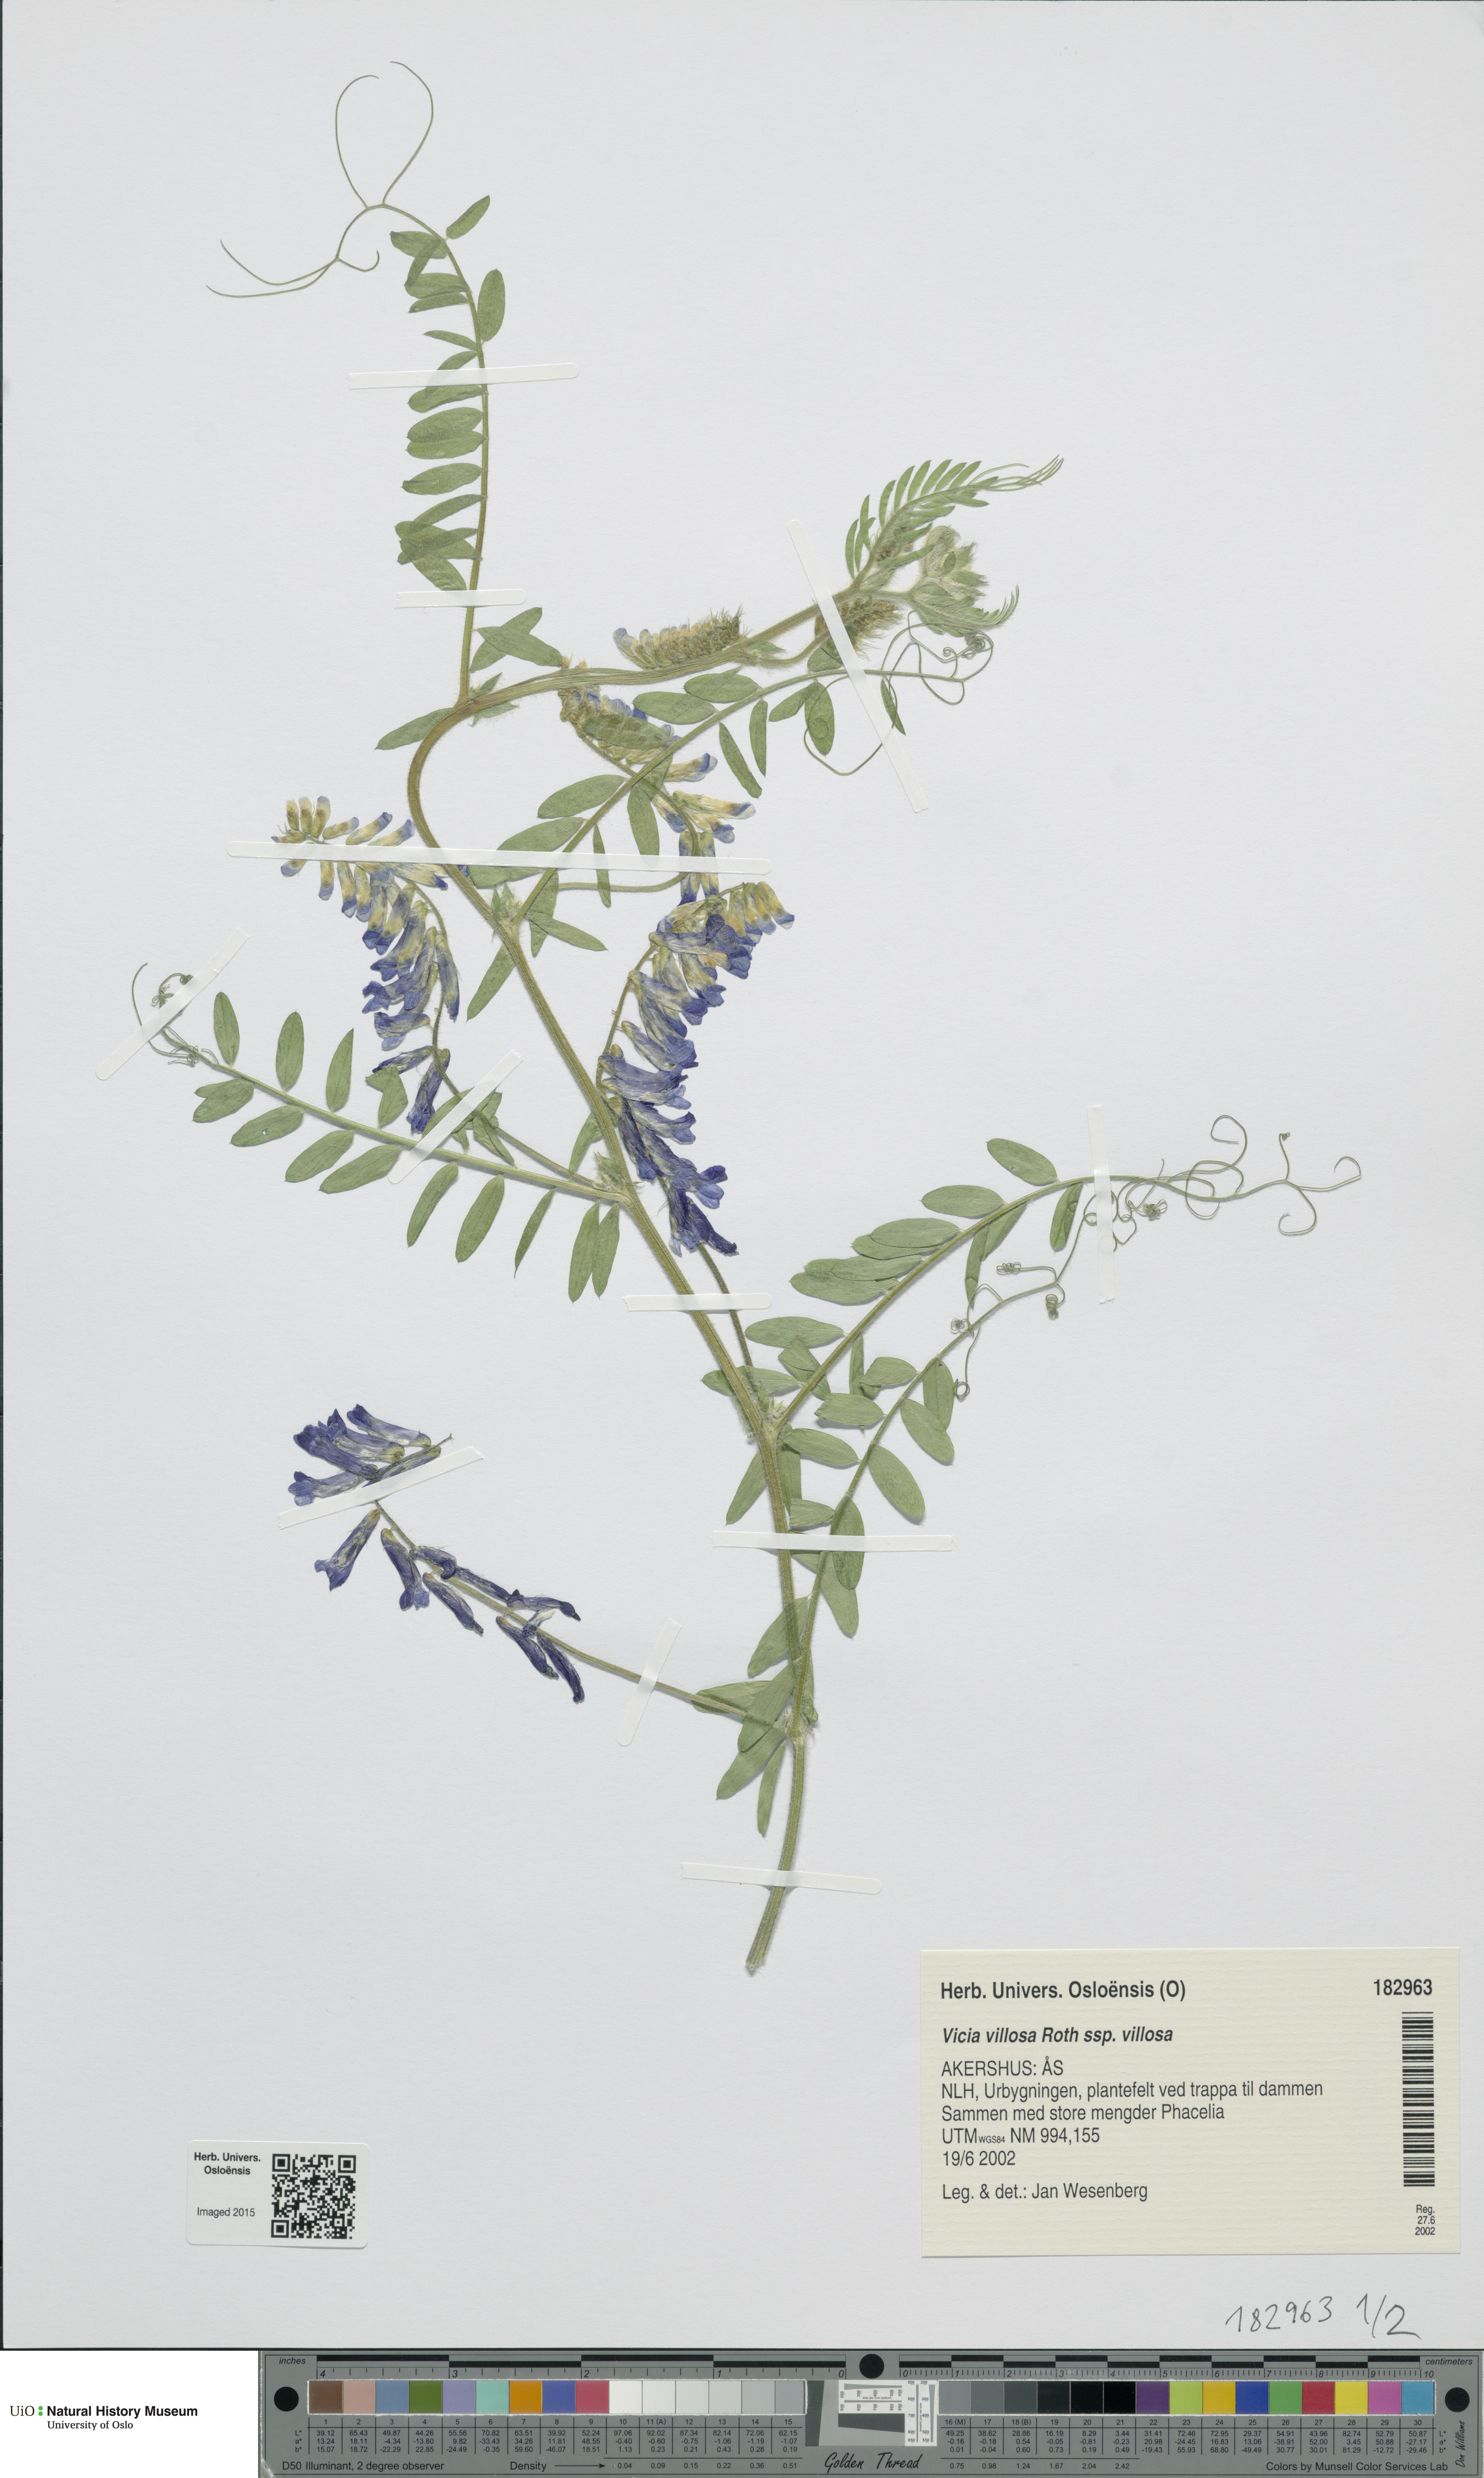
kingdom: Plantae
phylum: Tracheophyta
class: Magnoliopsida
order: Fabales
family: Fabaceae
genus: Vicia
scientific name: Vicia villosa
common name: Fodder vetch
